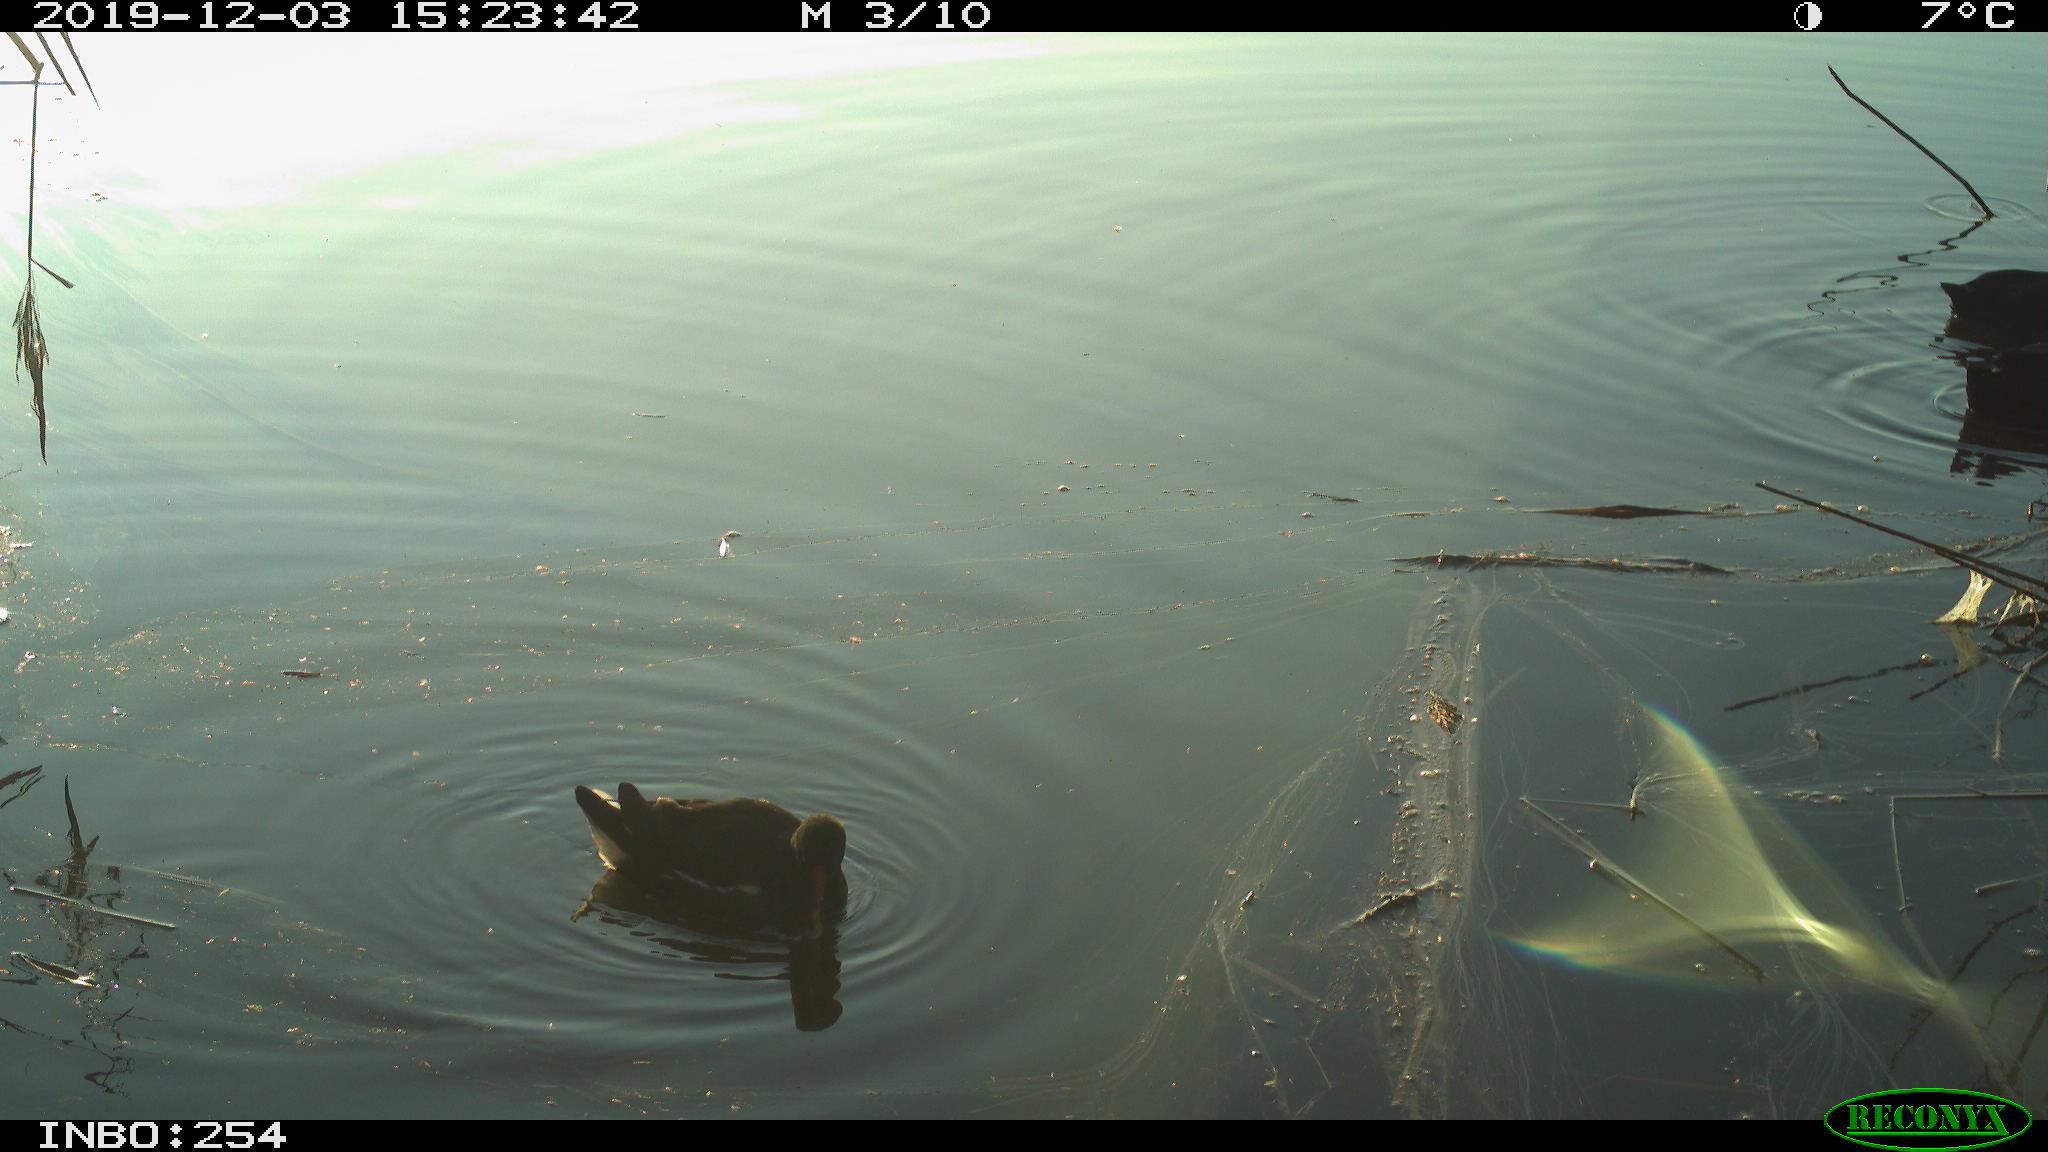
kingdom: Animalia
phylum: Chordata
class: Aves
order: Gruiformes
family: Rallidae
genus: Gallinula
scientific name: Gallinula chloropus
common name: Common moorhen
